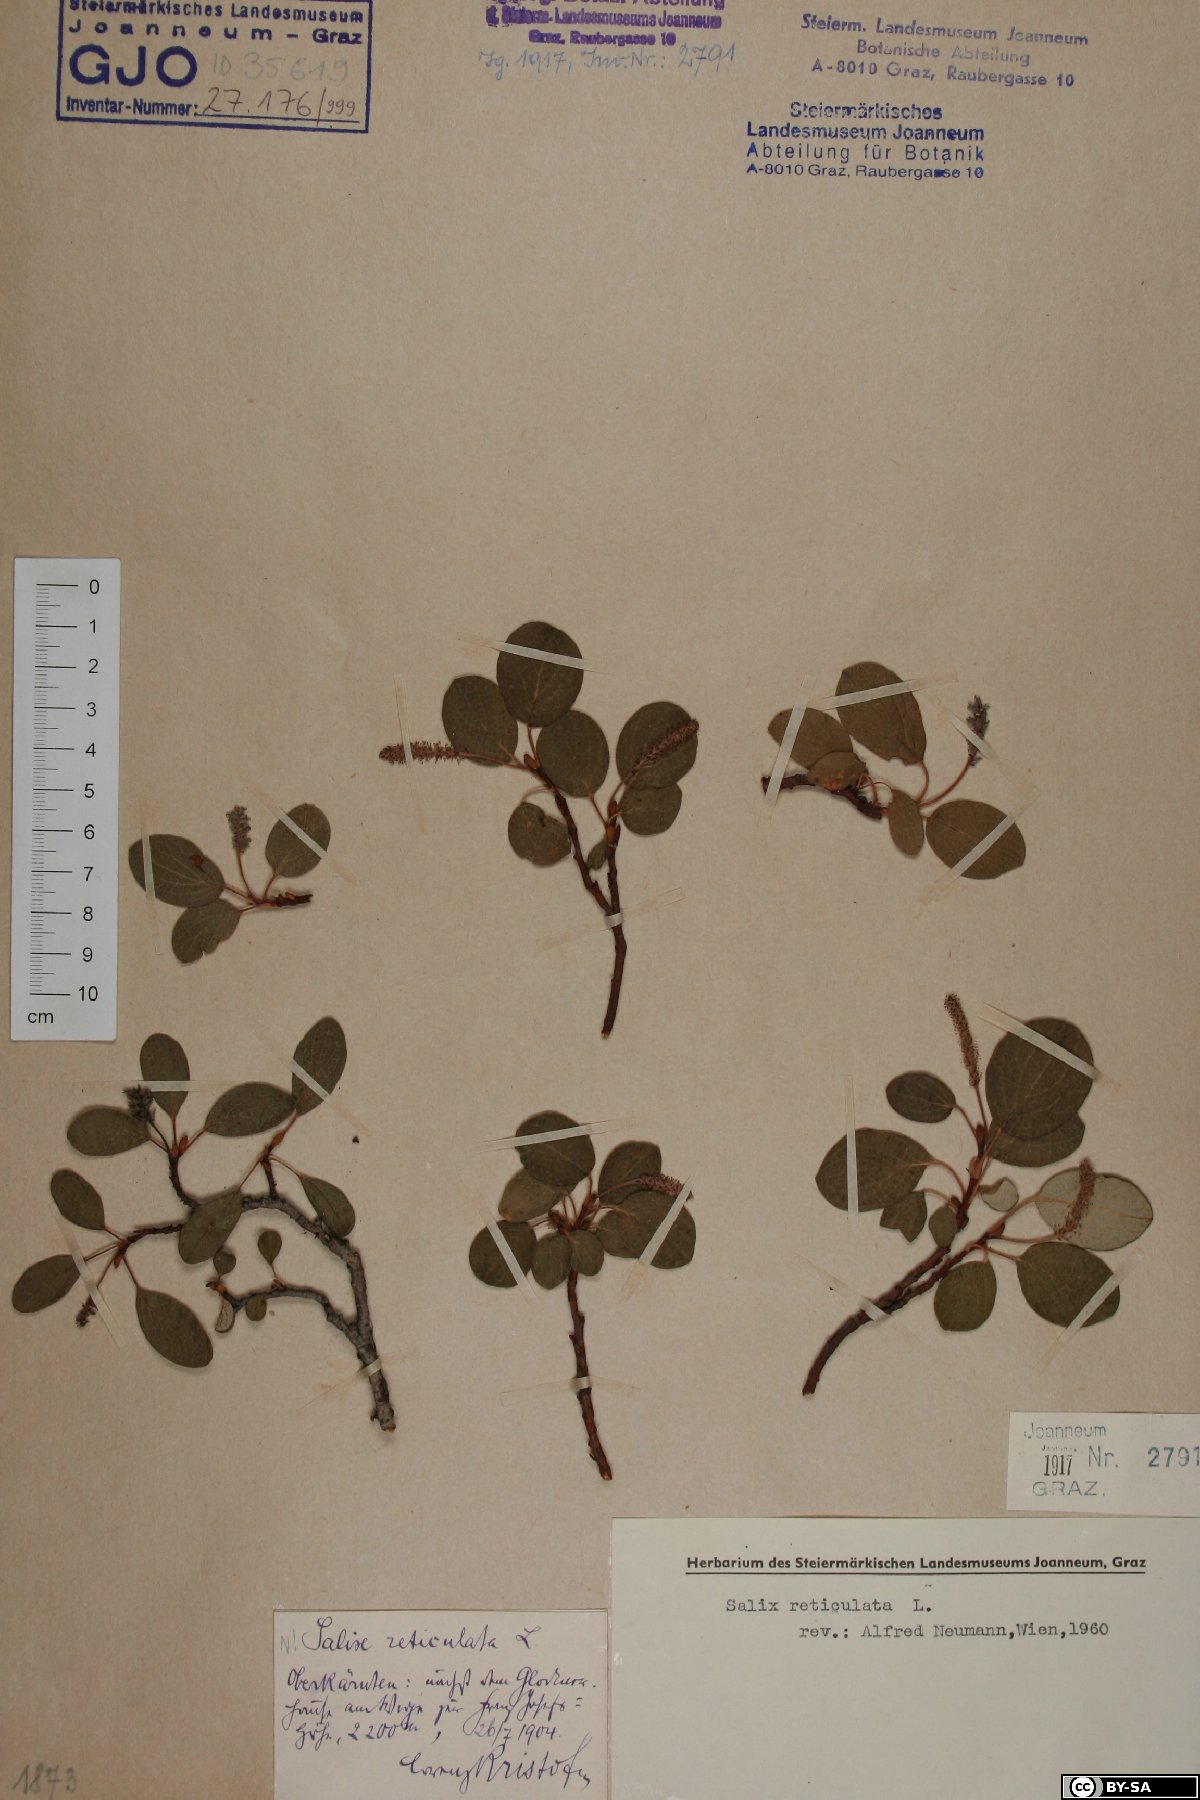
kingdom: Plantae
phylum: Tracheophyta
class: Magnoliopsida
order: Malpighiales
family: Salicaceae
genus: Salix
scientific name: Salix reticulata
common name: Net-leaved willow
